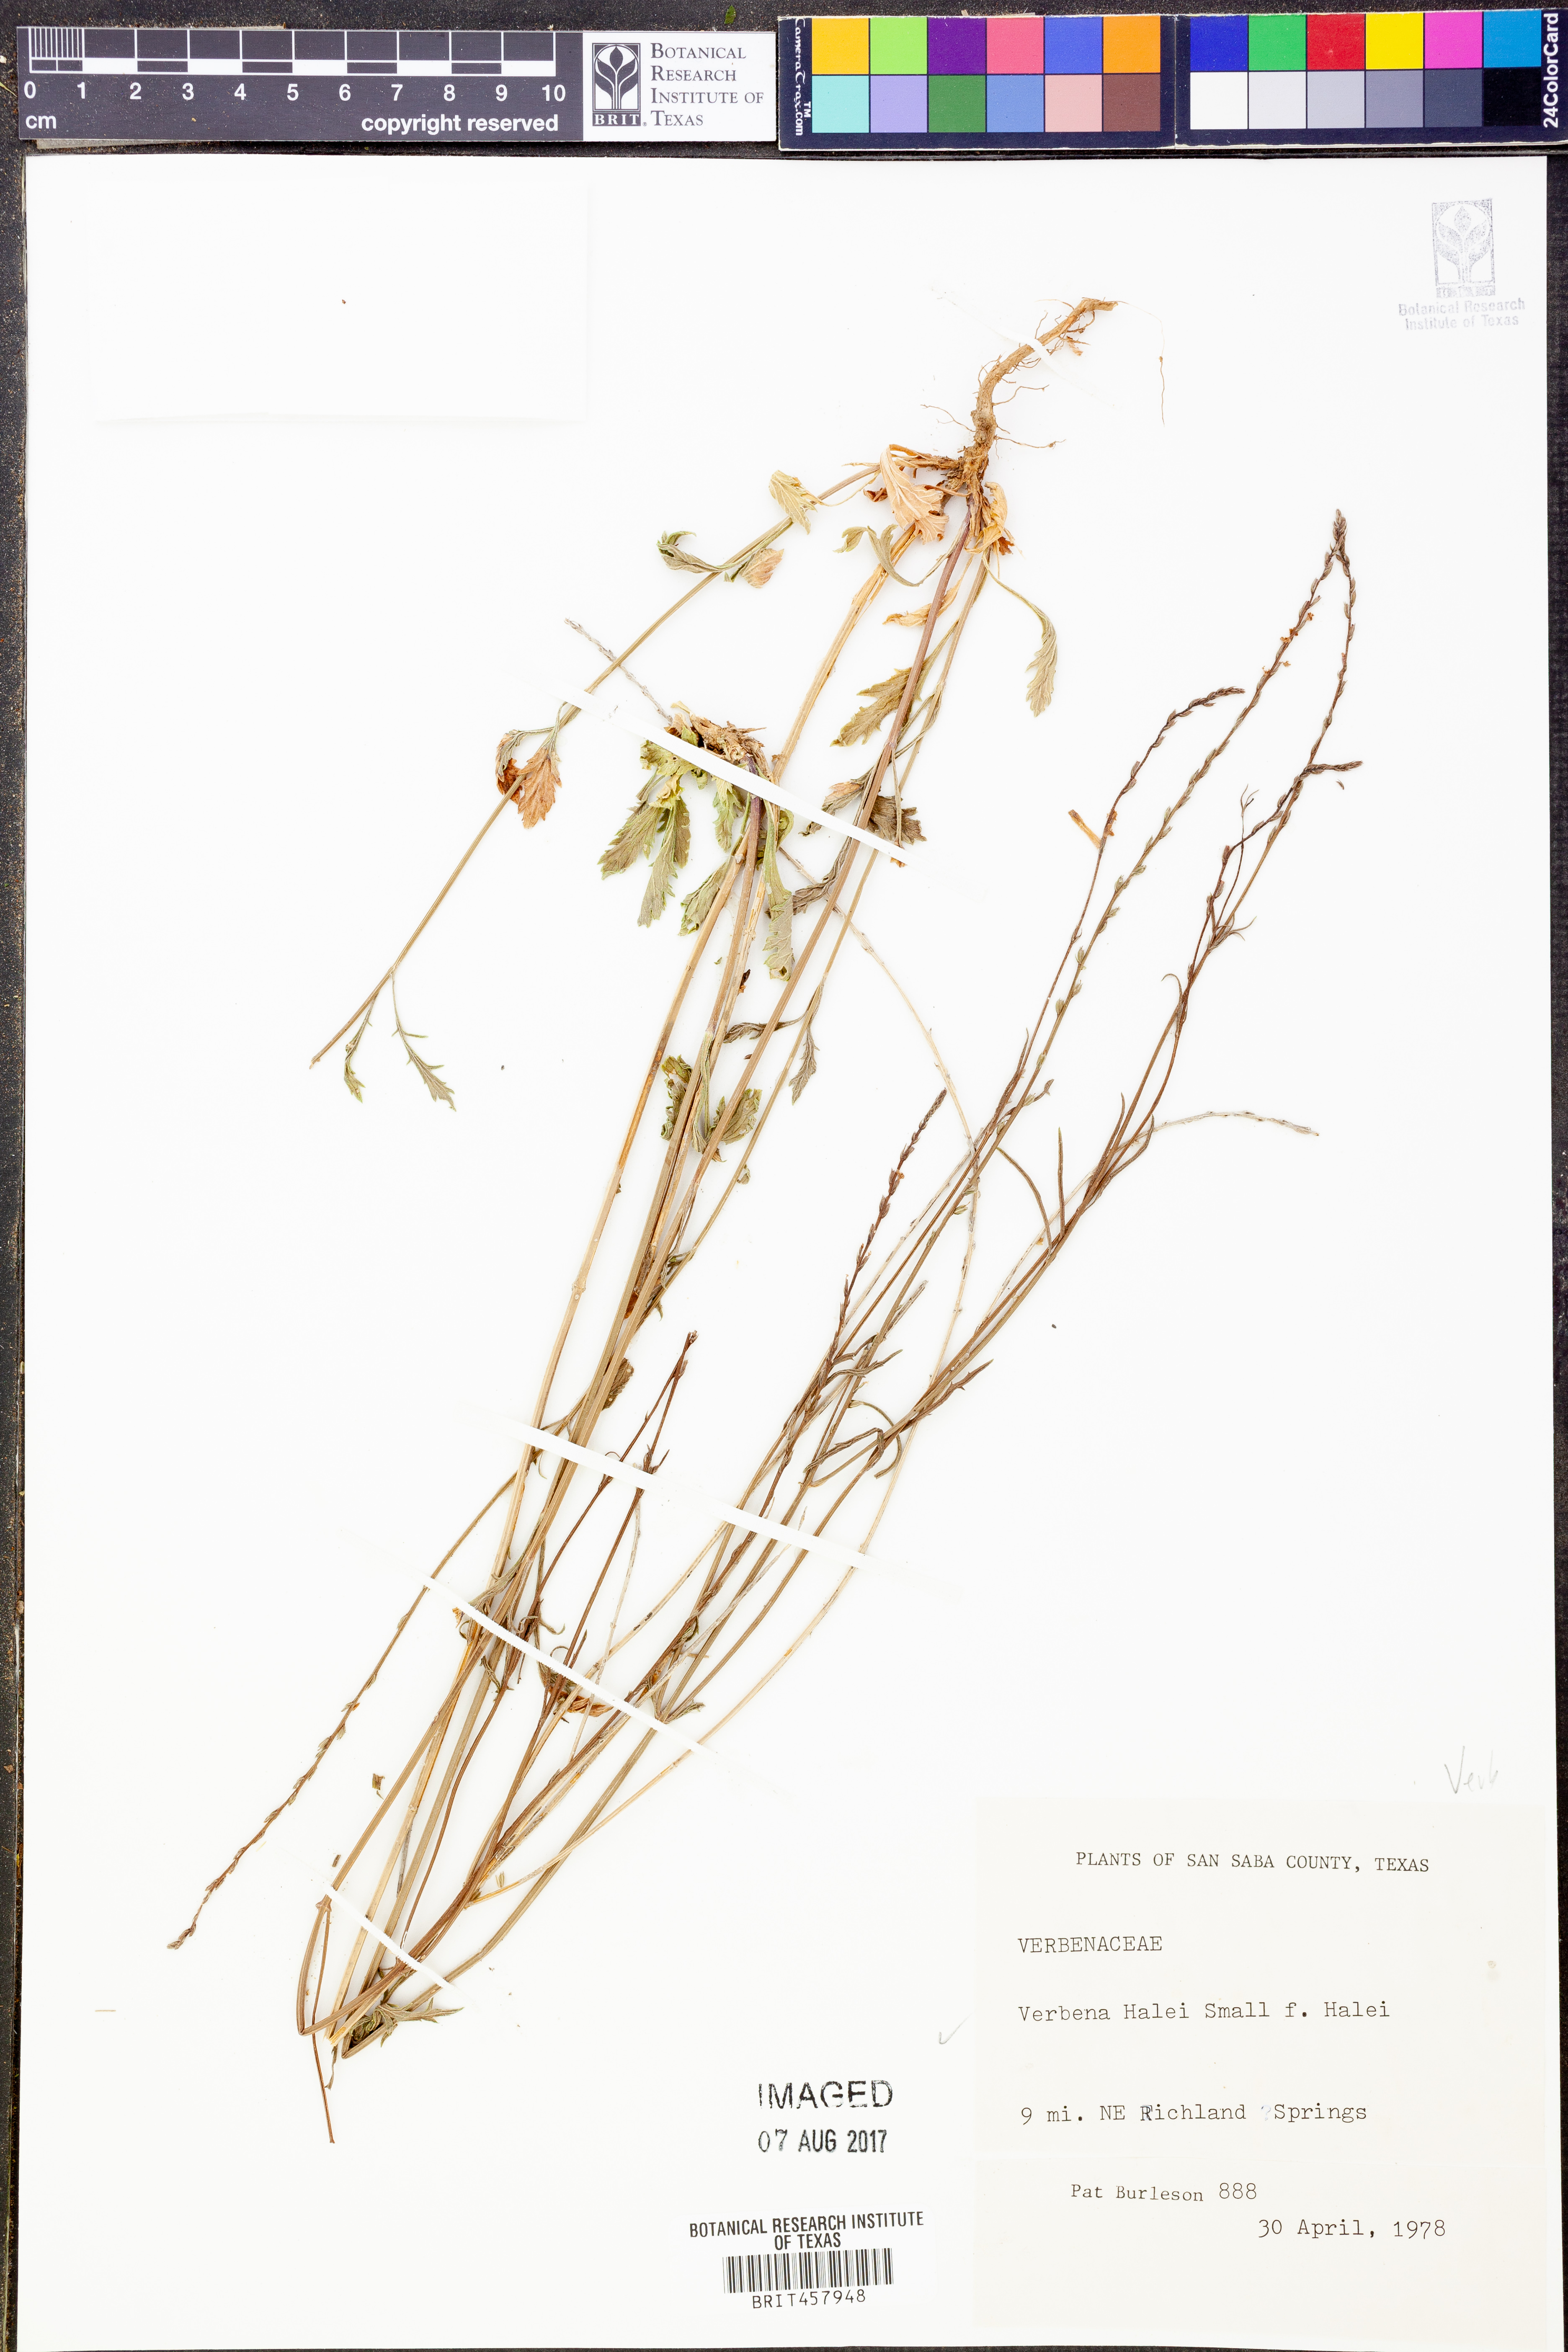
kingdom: Plantae
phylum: Tracheophyta
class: Magnoliopsida
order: Lamiales
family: Verbenaceae
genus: Verbena
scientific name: Verbena halei
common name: Texas vervain
